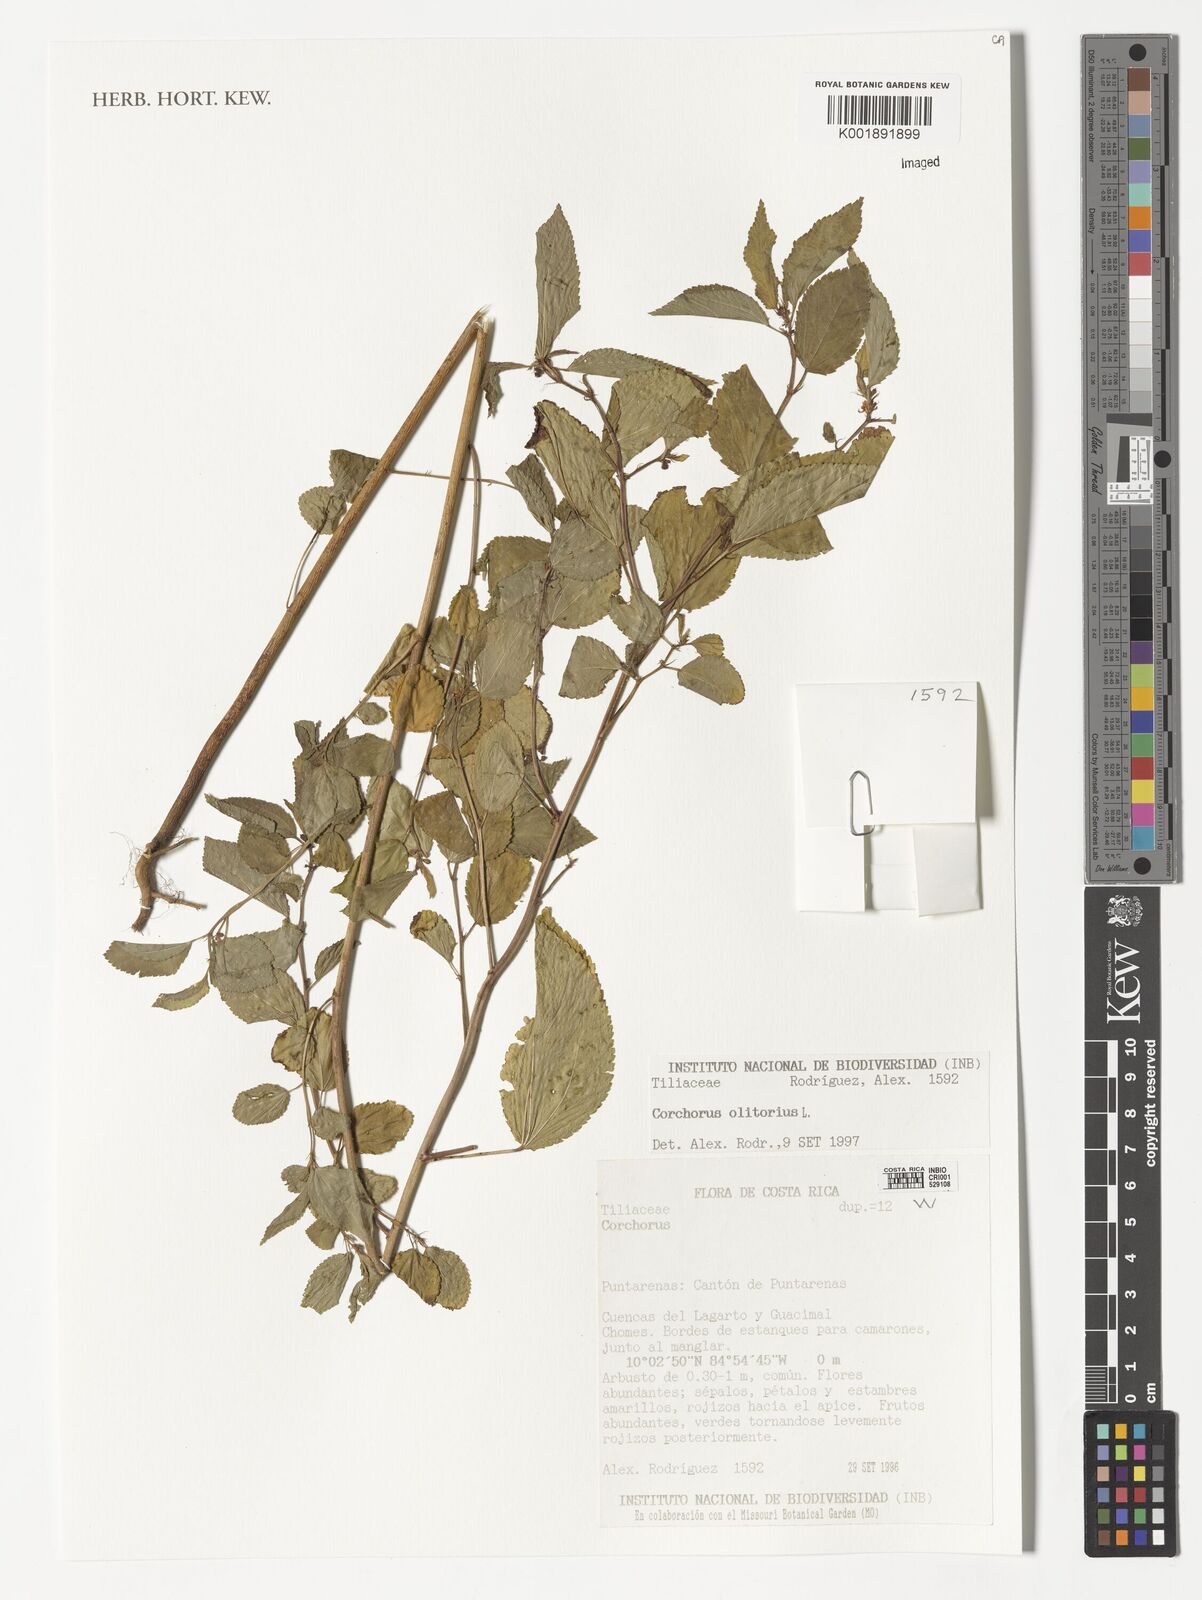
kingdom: Plantae
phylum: Tracheophyta
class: Magnoliopsida
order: Malvales
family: Malvaceae
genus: Corchorus
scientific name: Corchorus olitorius
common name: Tossa jute
